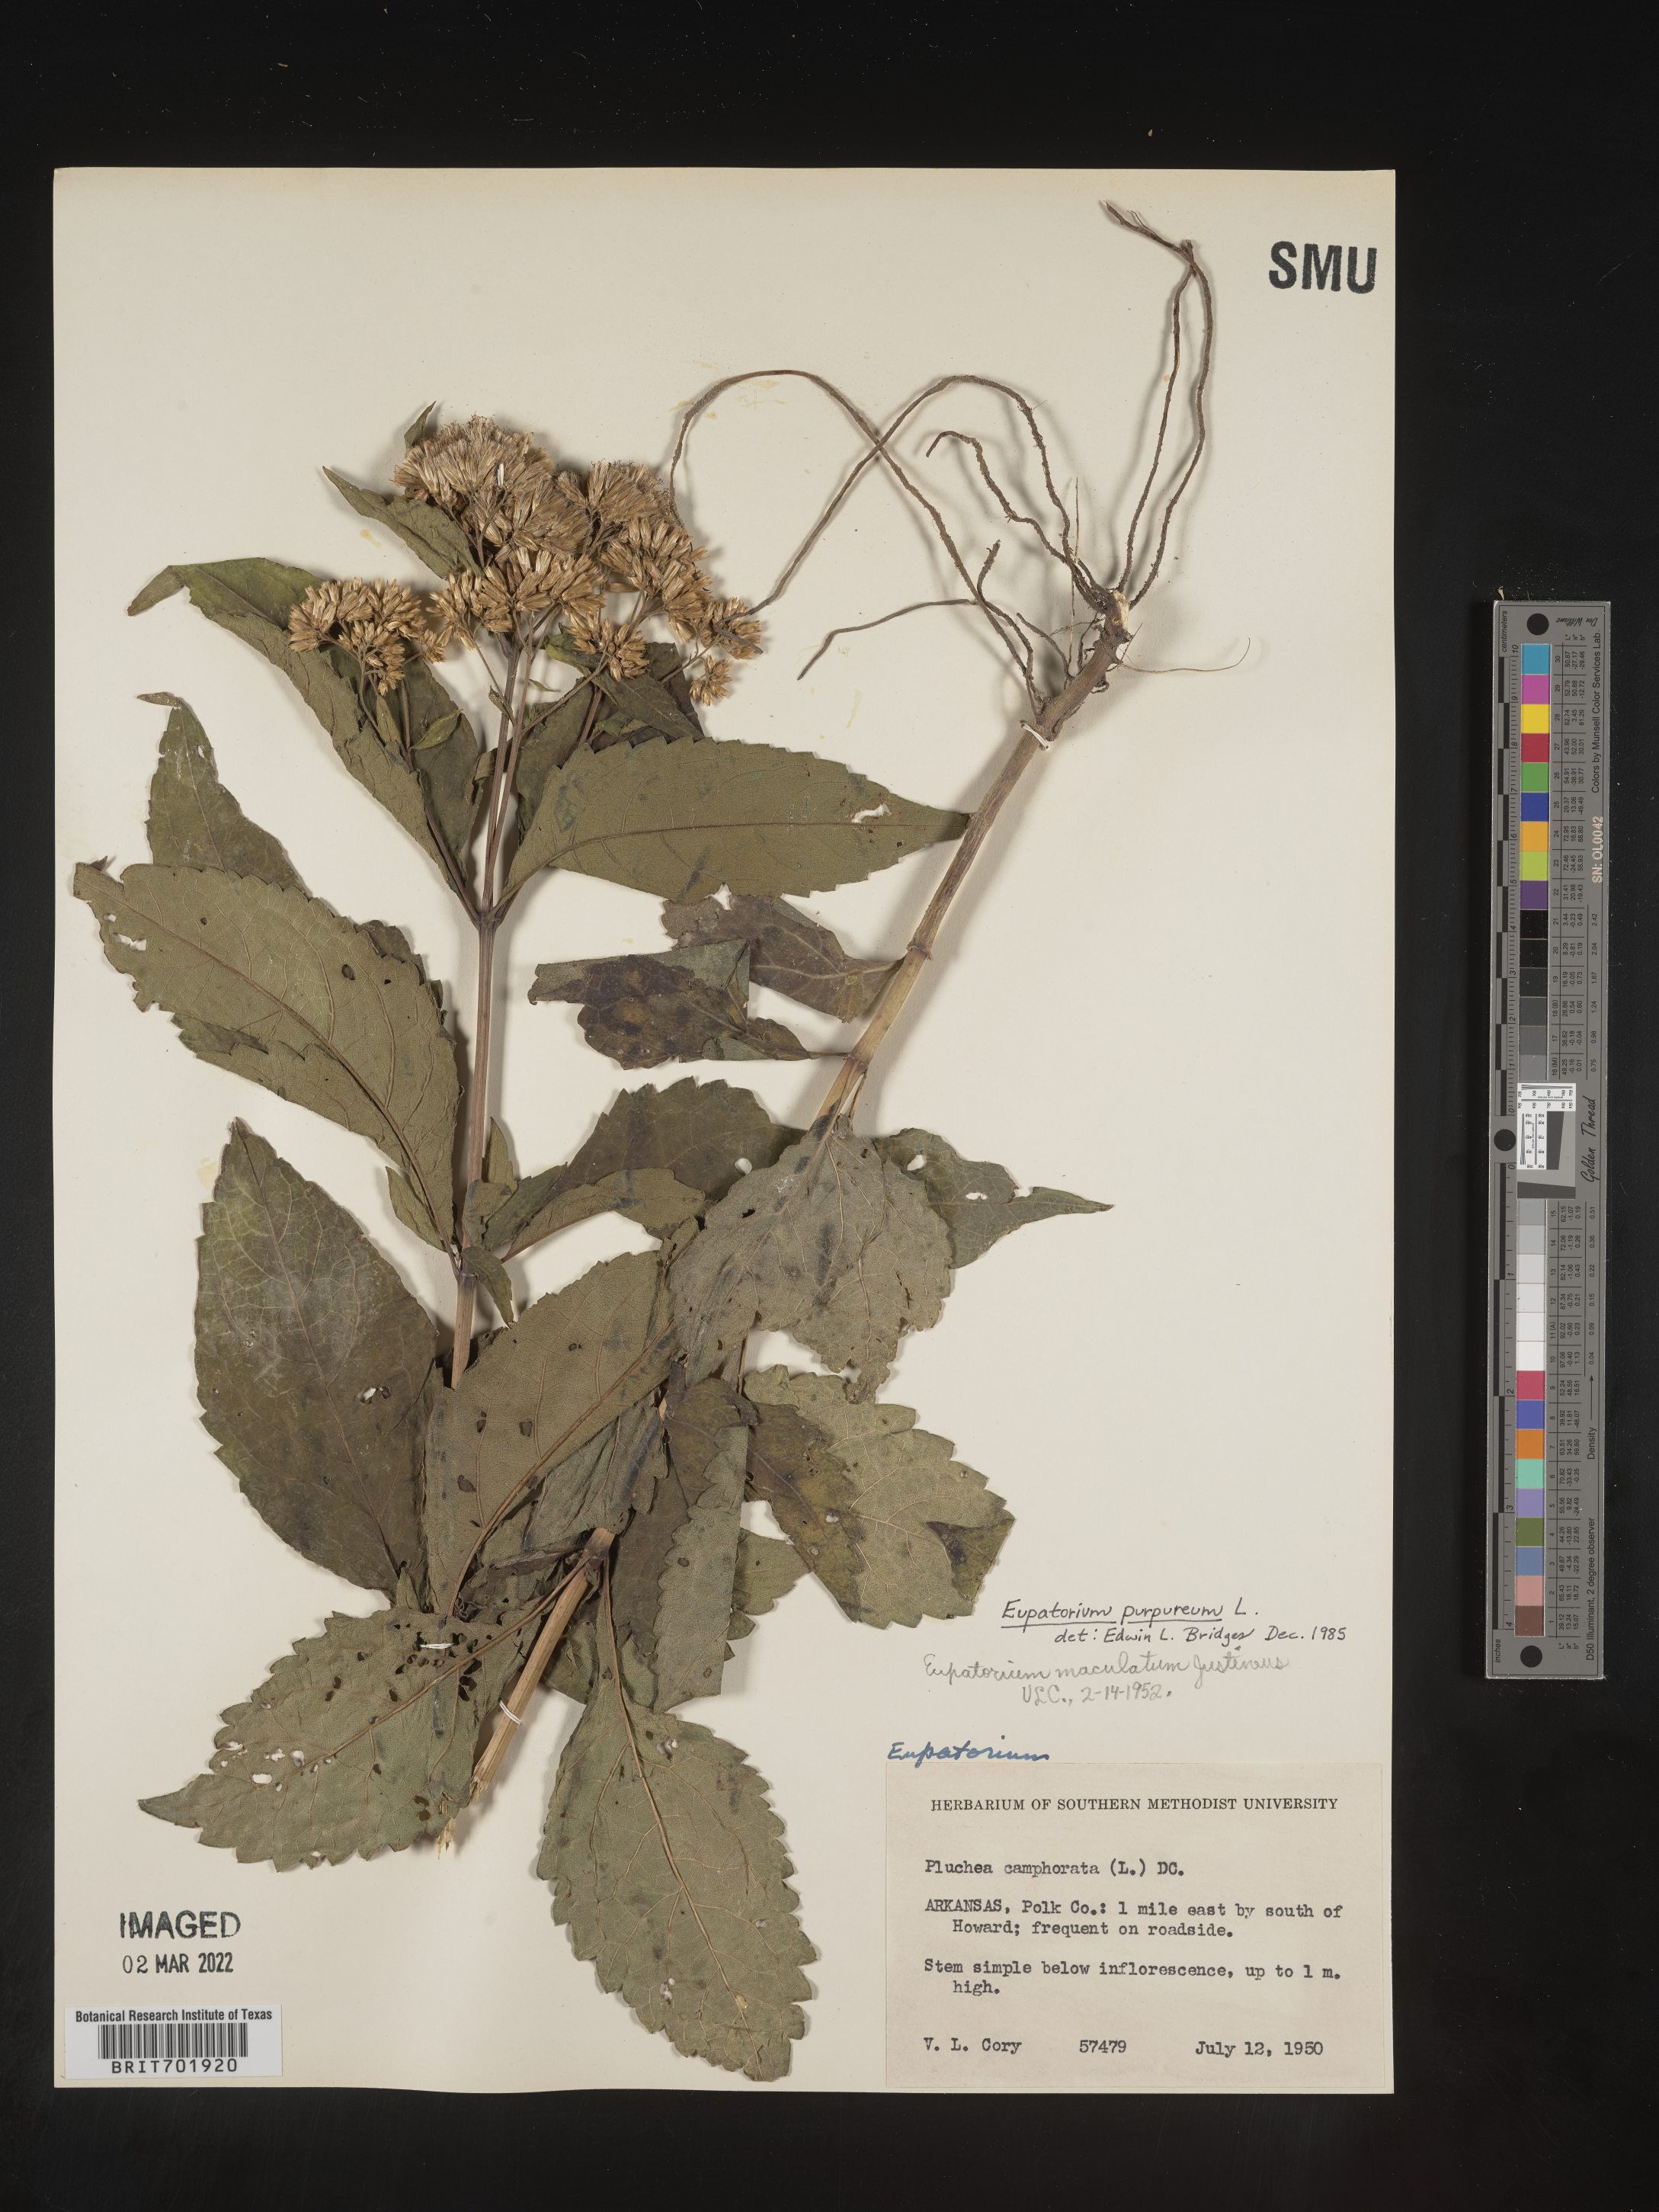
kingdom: Plantae
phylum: Tracheophyta
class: Magnoliopsida
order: Asterales
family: Asteraceae
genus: Eupatorium
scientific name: Eupatorium quaternum
